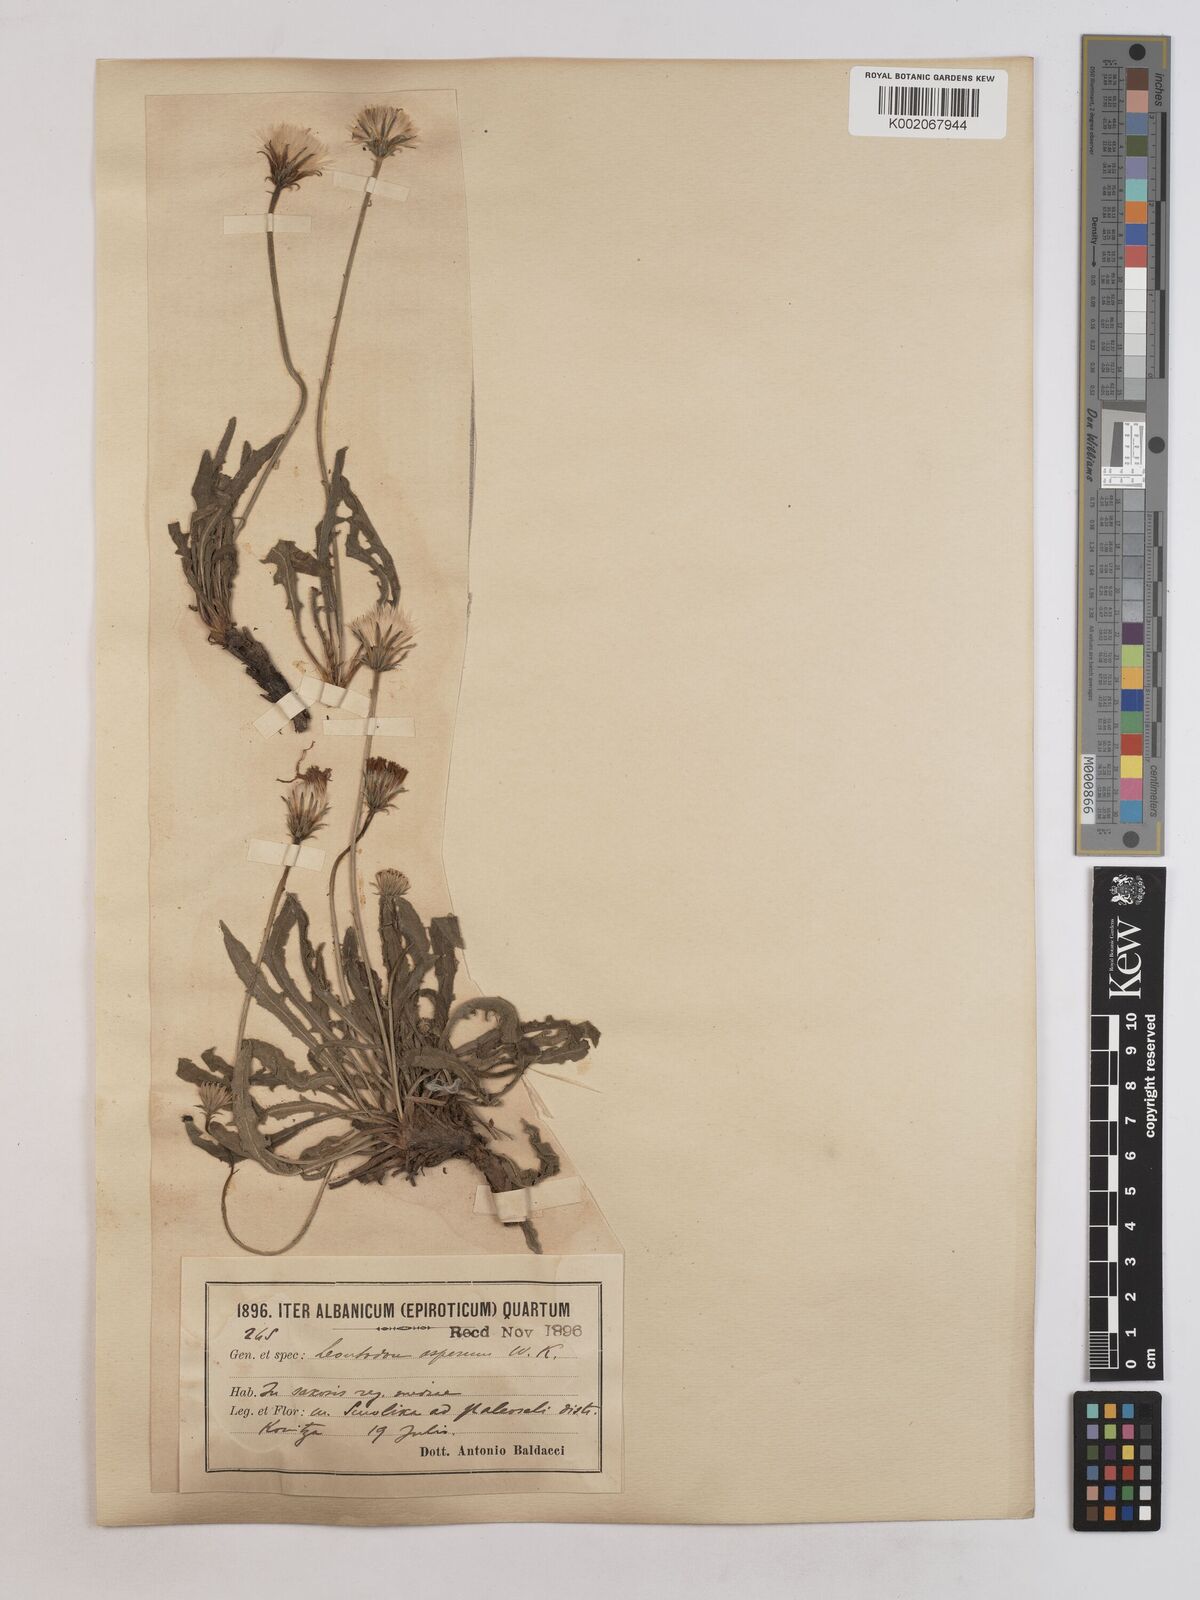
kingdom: Plantae
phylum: Tracheophyta
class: Magnoliopsida
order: Asterales
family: Asteraceae
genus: Leontodon
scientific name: Leontodon
